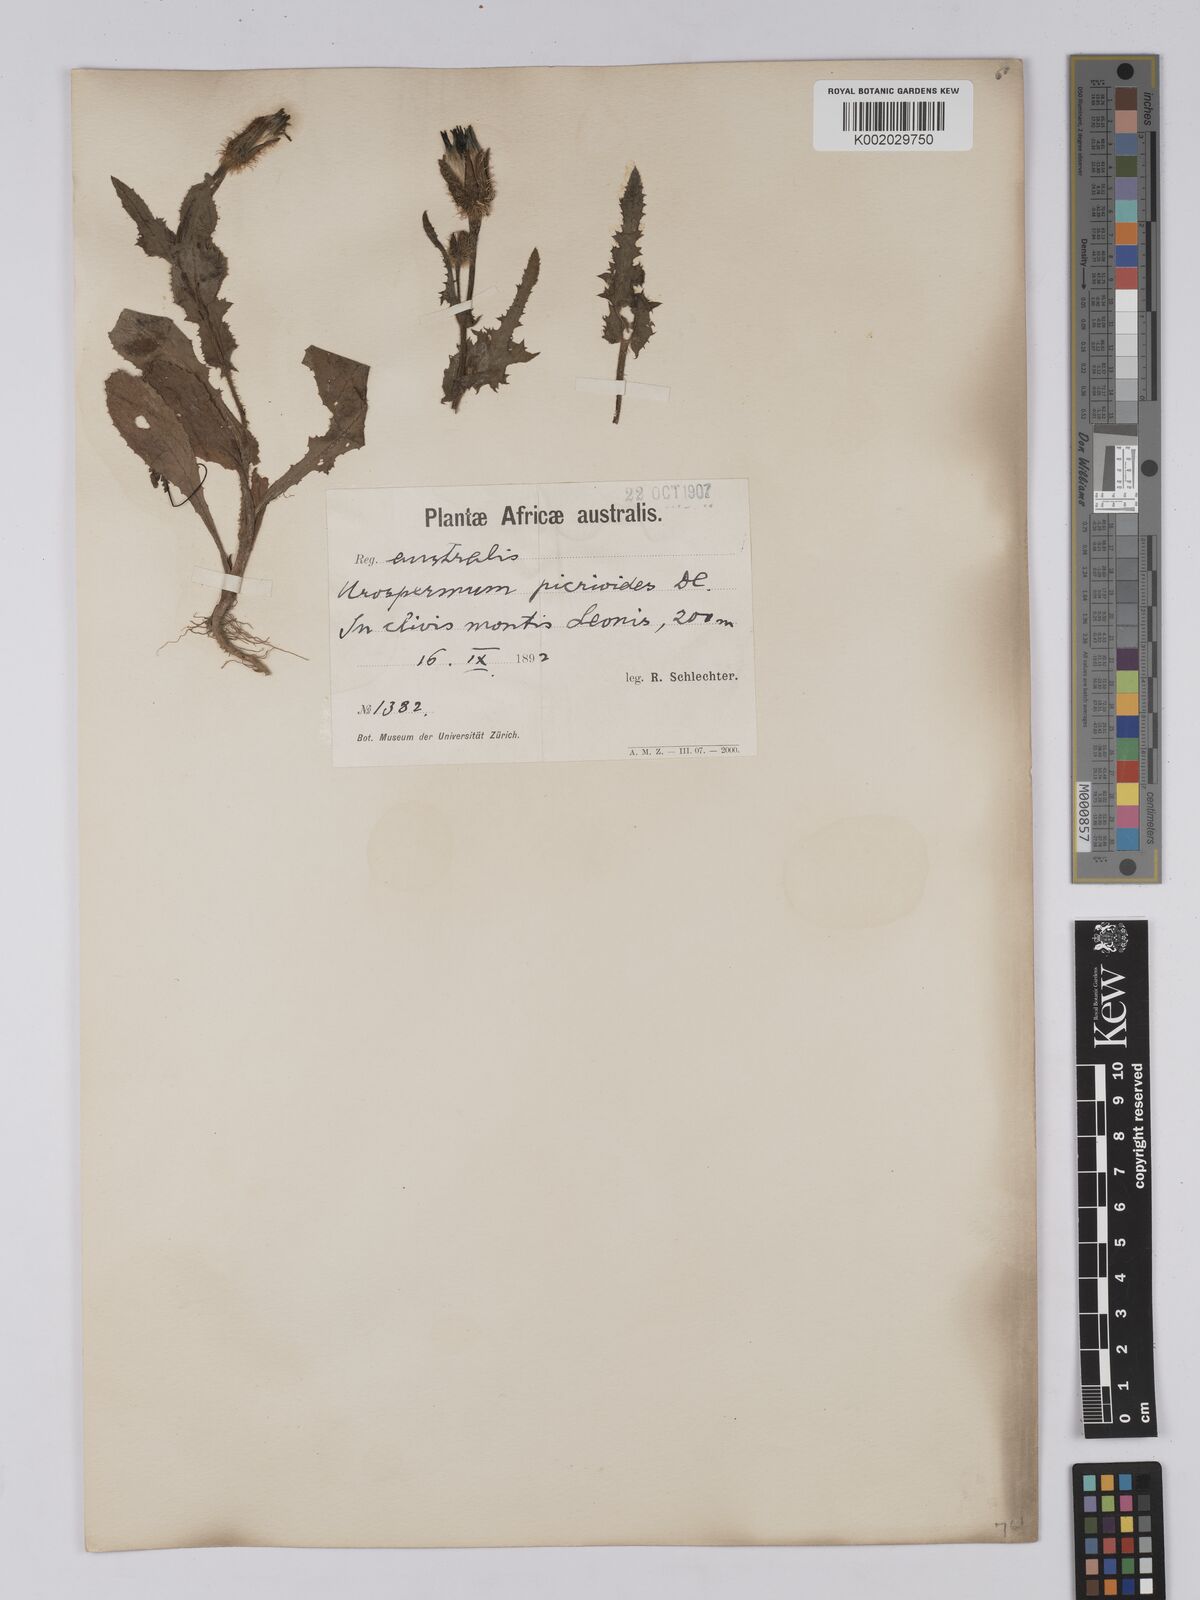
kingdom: Plantae
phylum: Tracheophyta
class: Magnoliopsida
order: Asterales
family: Asteraceae
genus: Urospermum
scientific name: Urospermum picroides
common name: False hawkbit
